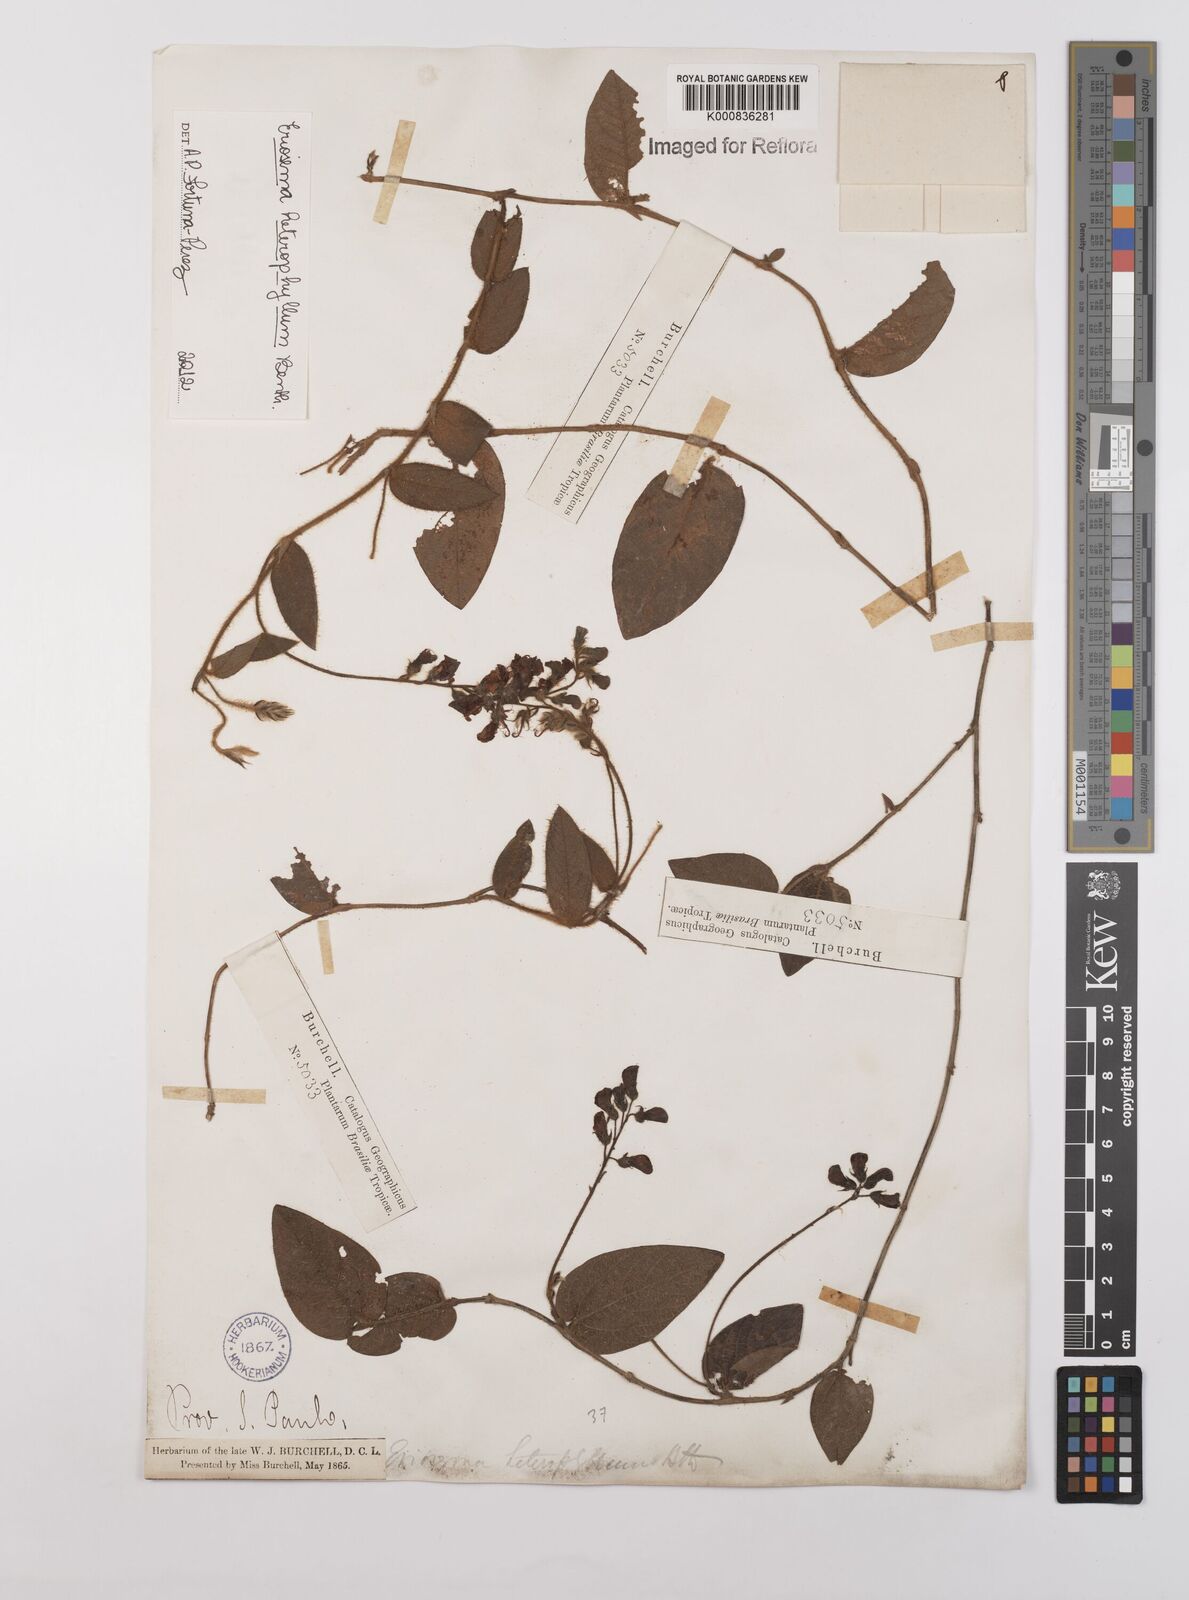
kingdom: Plantae
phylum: Tracheophyta
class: Magnoliopsida
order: Fabales
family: Fabaceae
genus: Eriosema
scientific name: Eriosema heterophyllum
